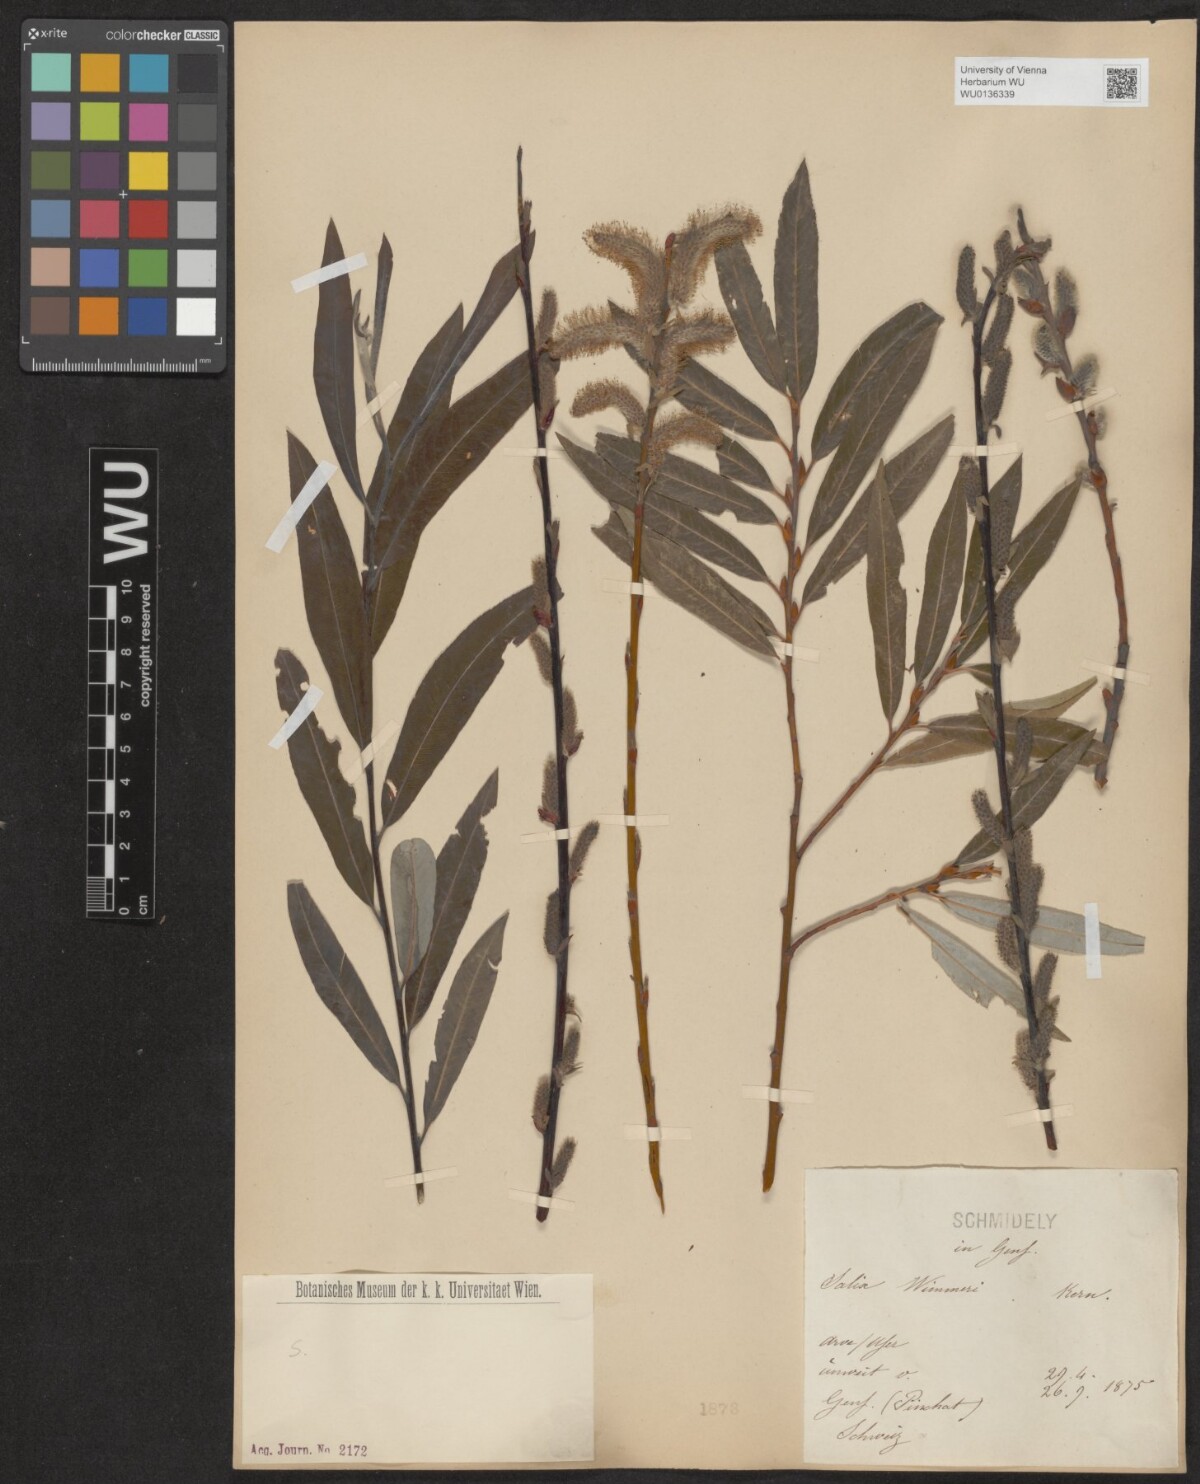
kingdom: Plantae
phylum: Tracheophyta
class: Magnoliopsida
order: Malpighiales
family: Salicaceae
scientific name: Salicaceae
